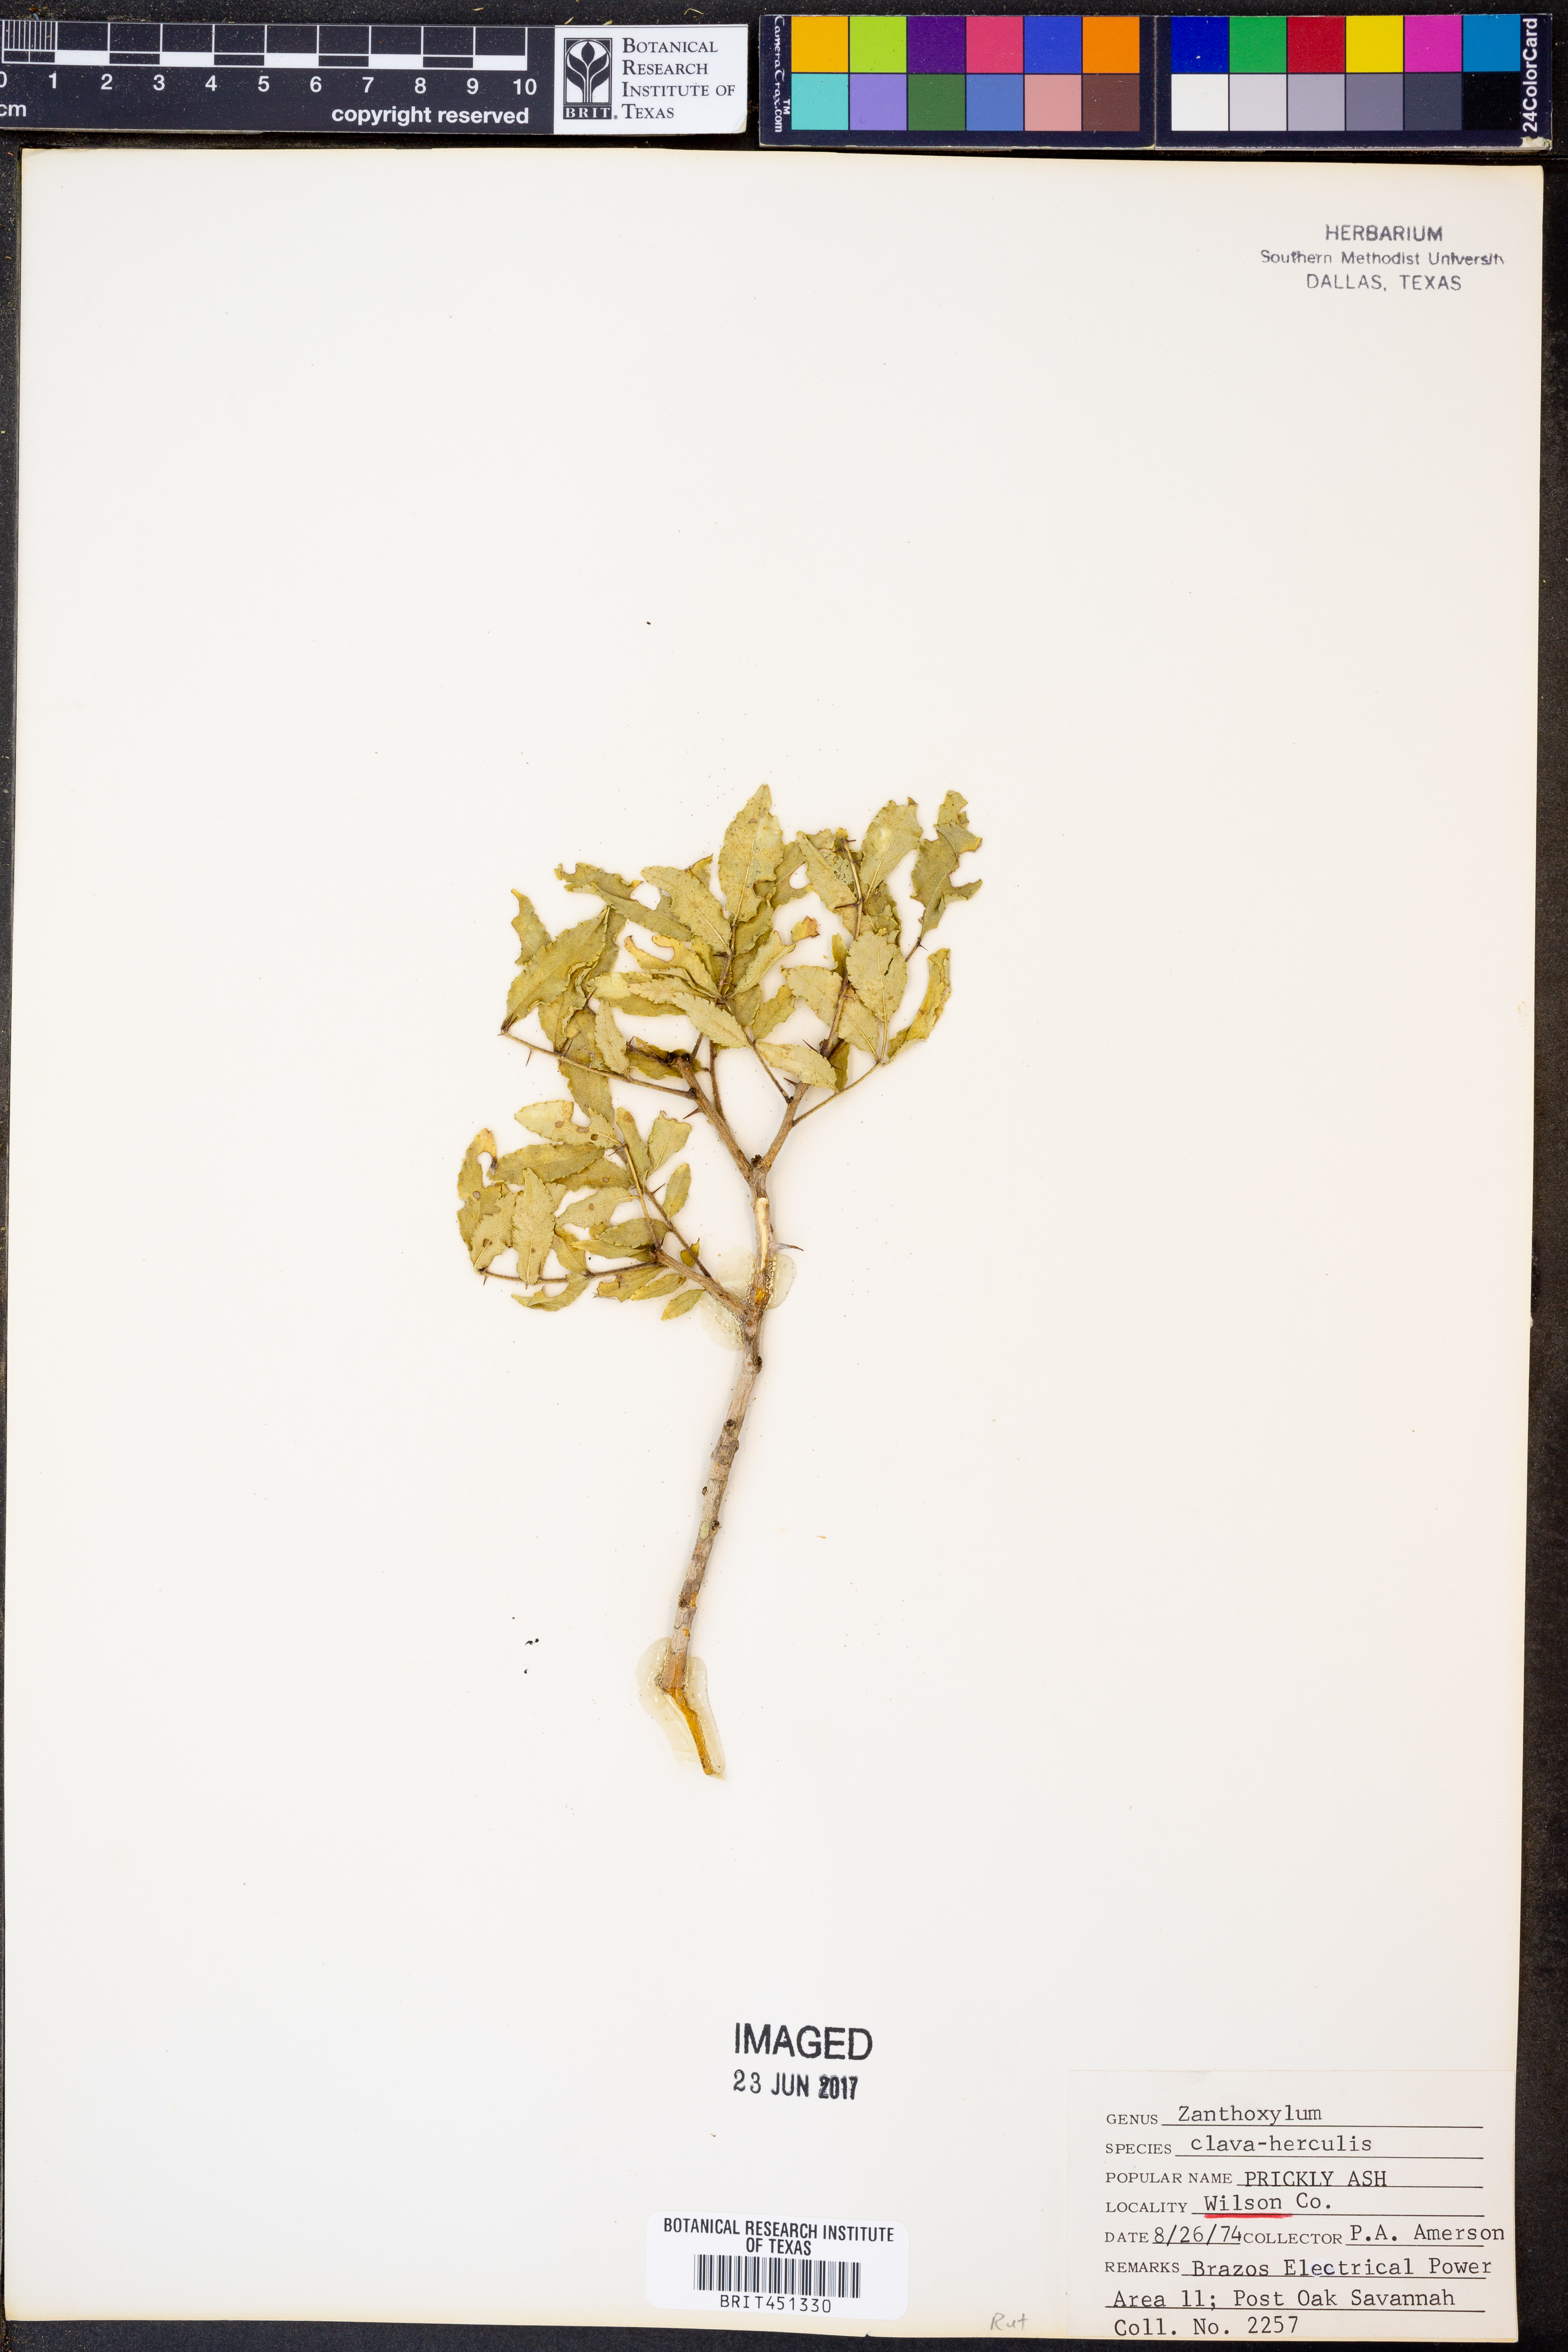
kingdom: Plantae
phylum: Tracheophyta
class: Magnoliopsida
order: Sapindales
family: Rutaceae
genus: Zanthoxylum
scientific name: Zanthoxylum avicennae
